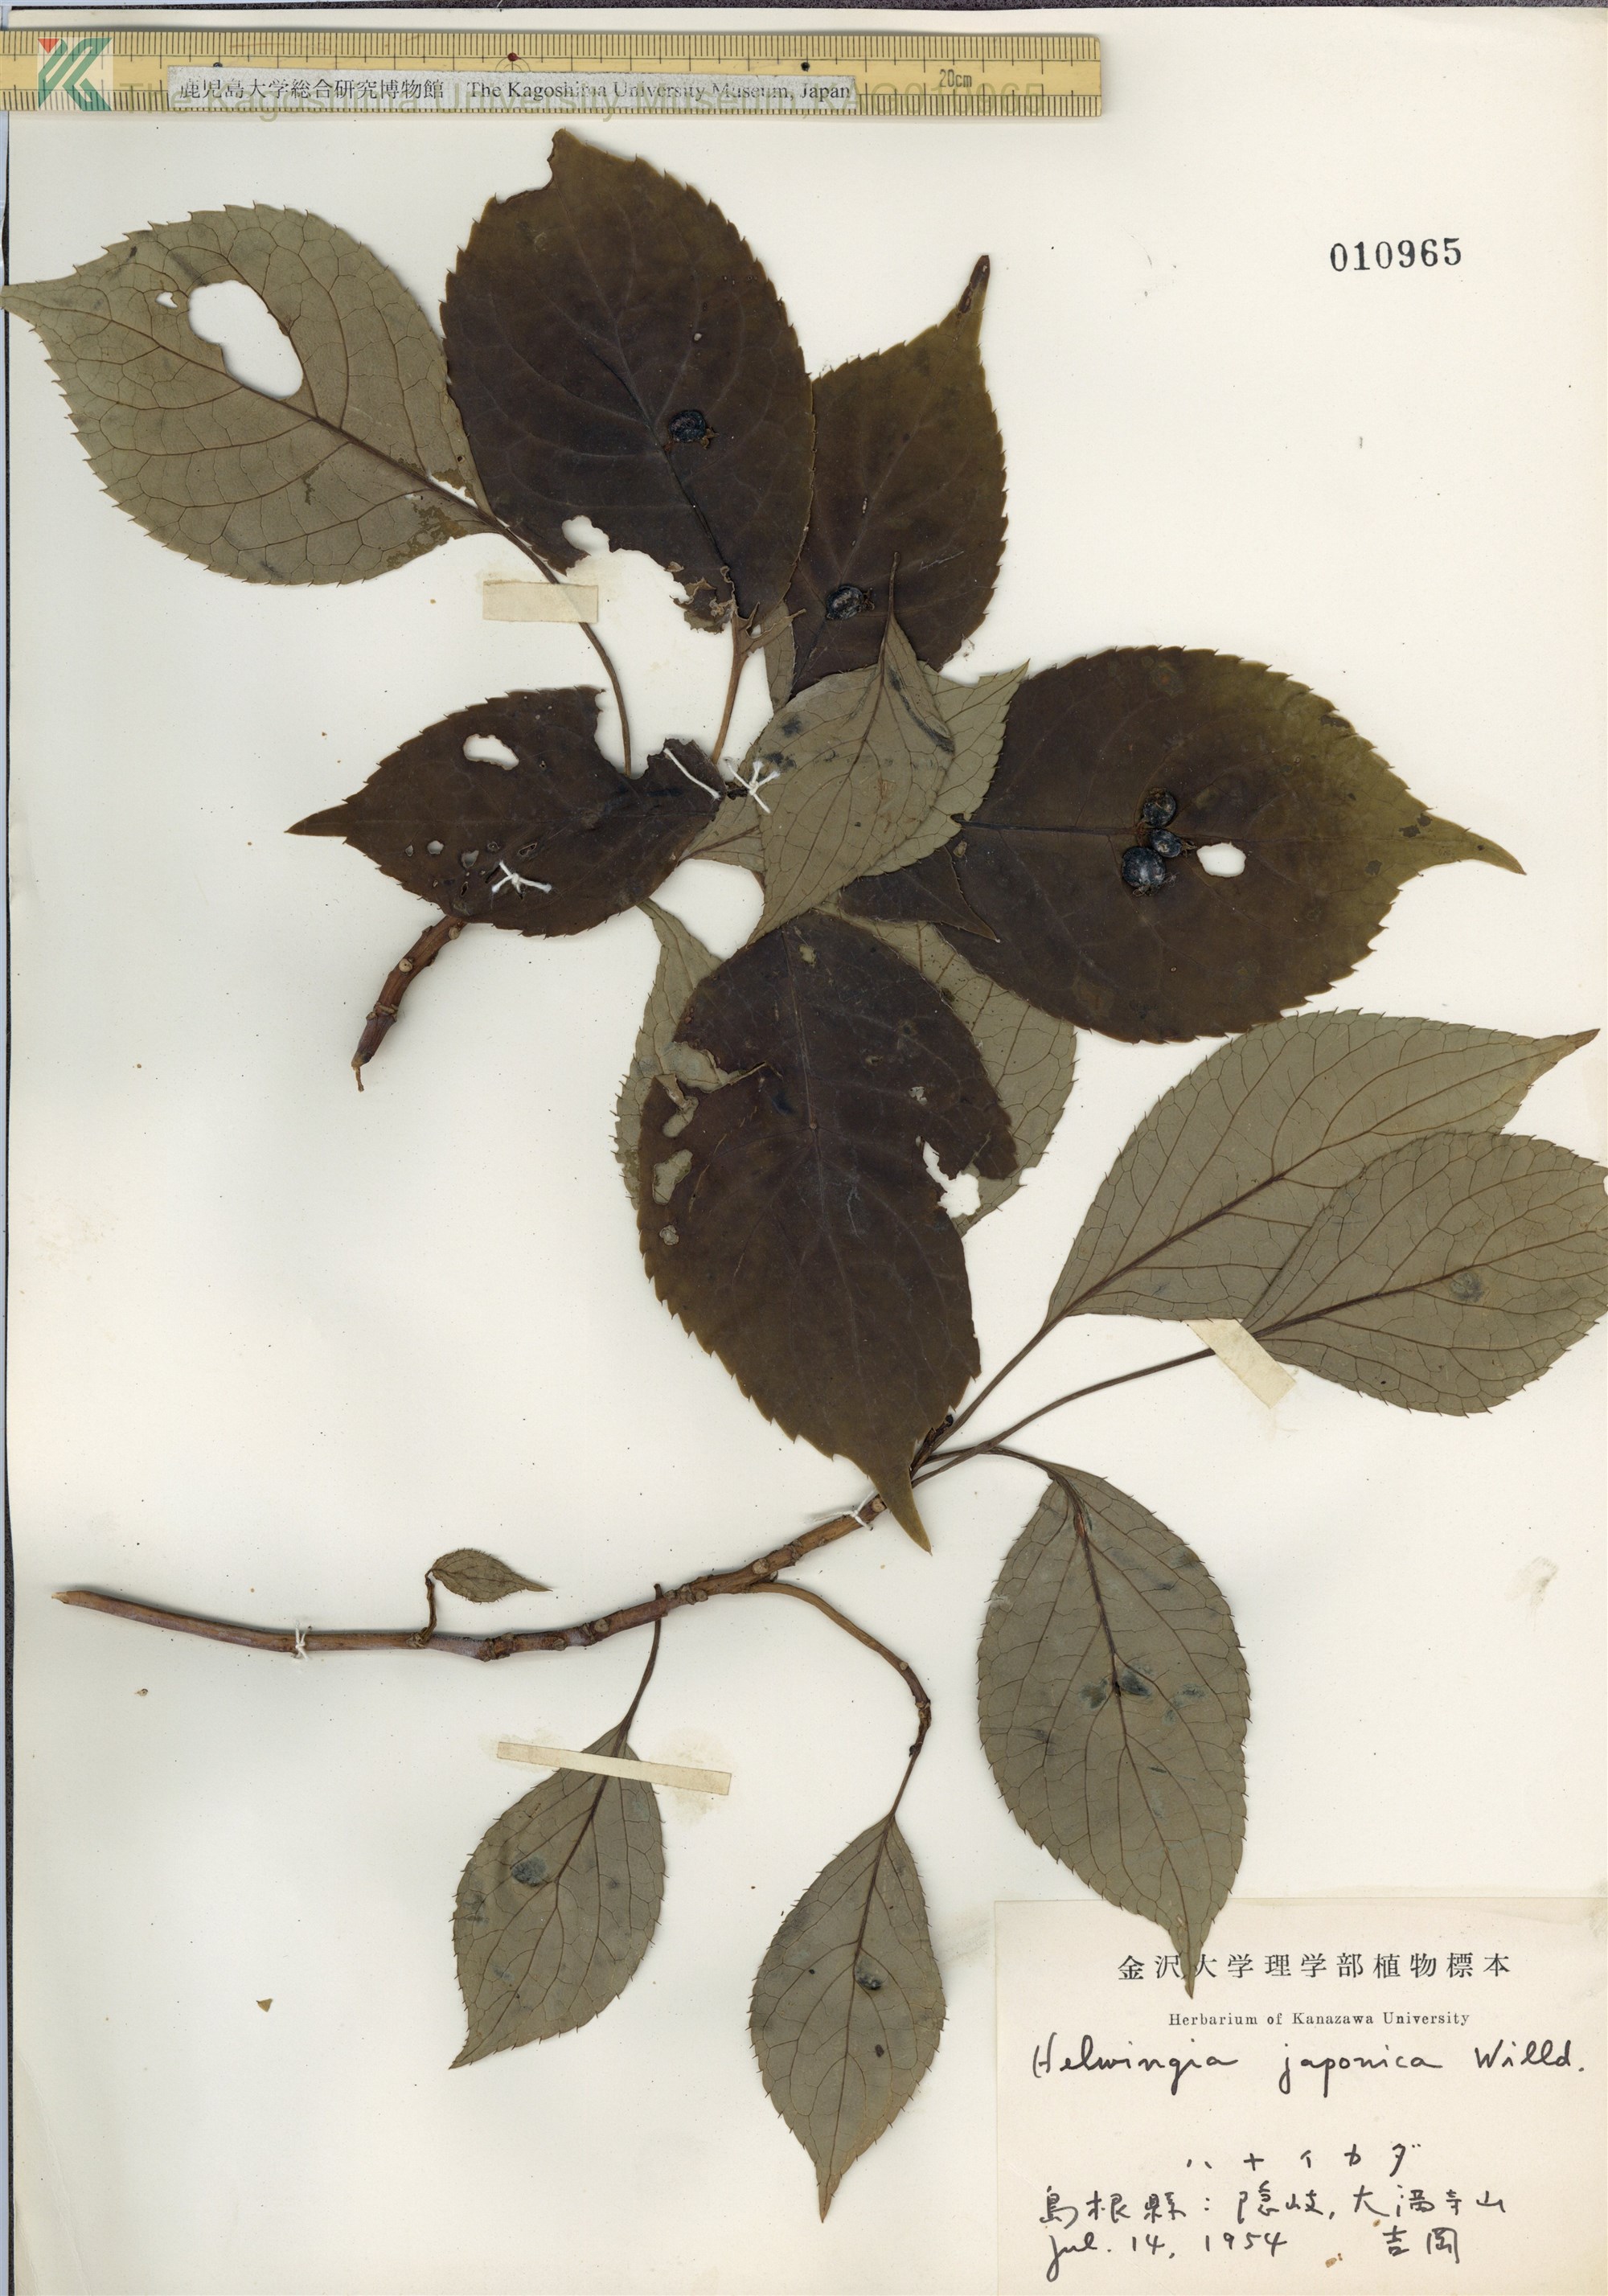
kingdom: Plantae
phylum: Tracheophyta
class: Magnoliopsida
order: Aquifoliales
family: Helwingiaceae
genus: Helwingia
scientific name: Helwingia japonica
